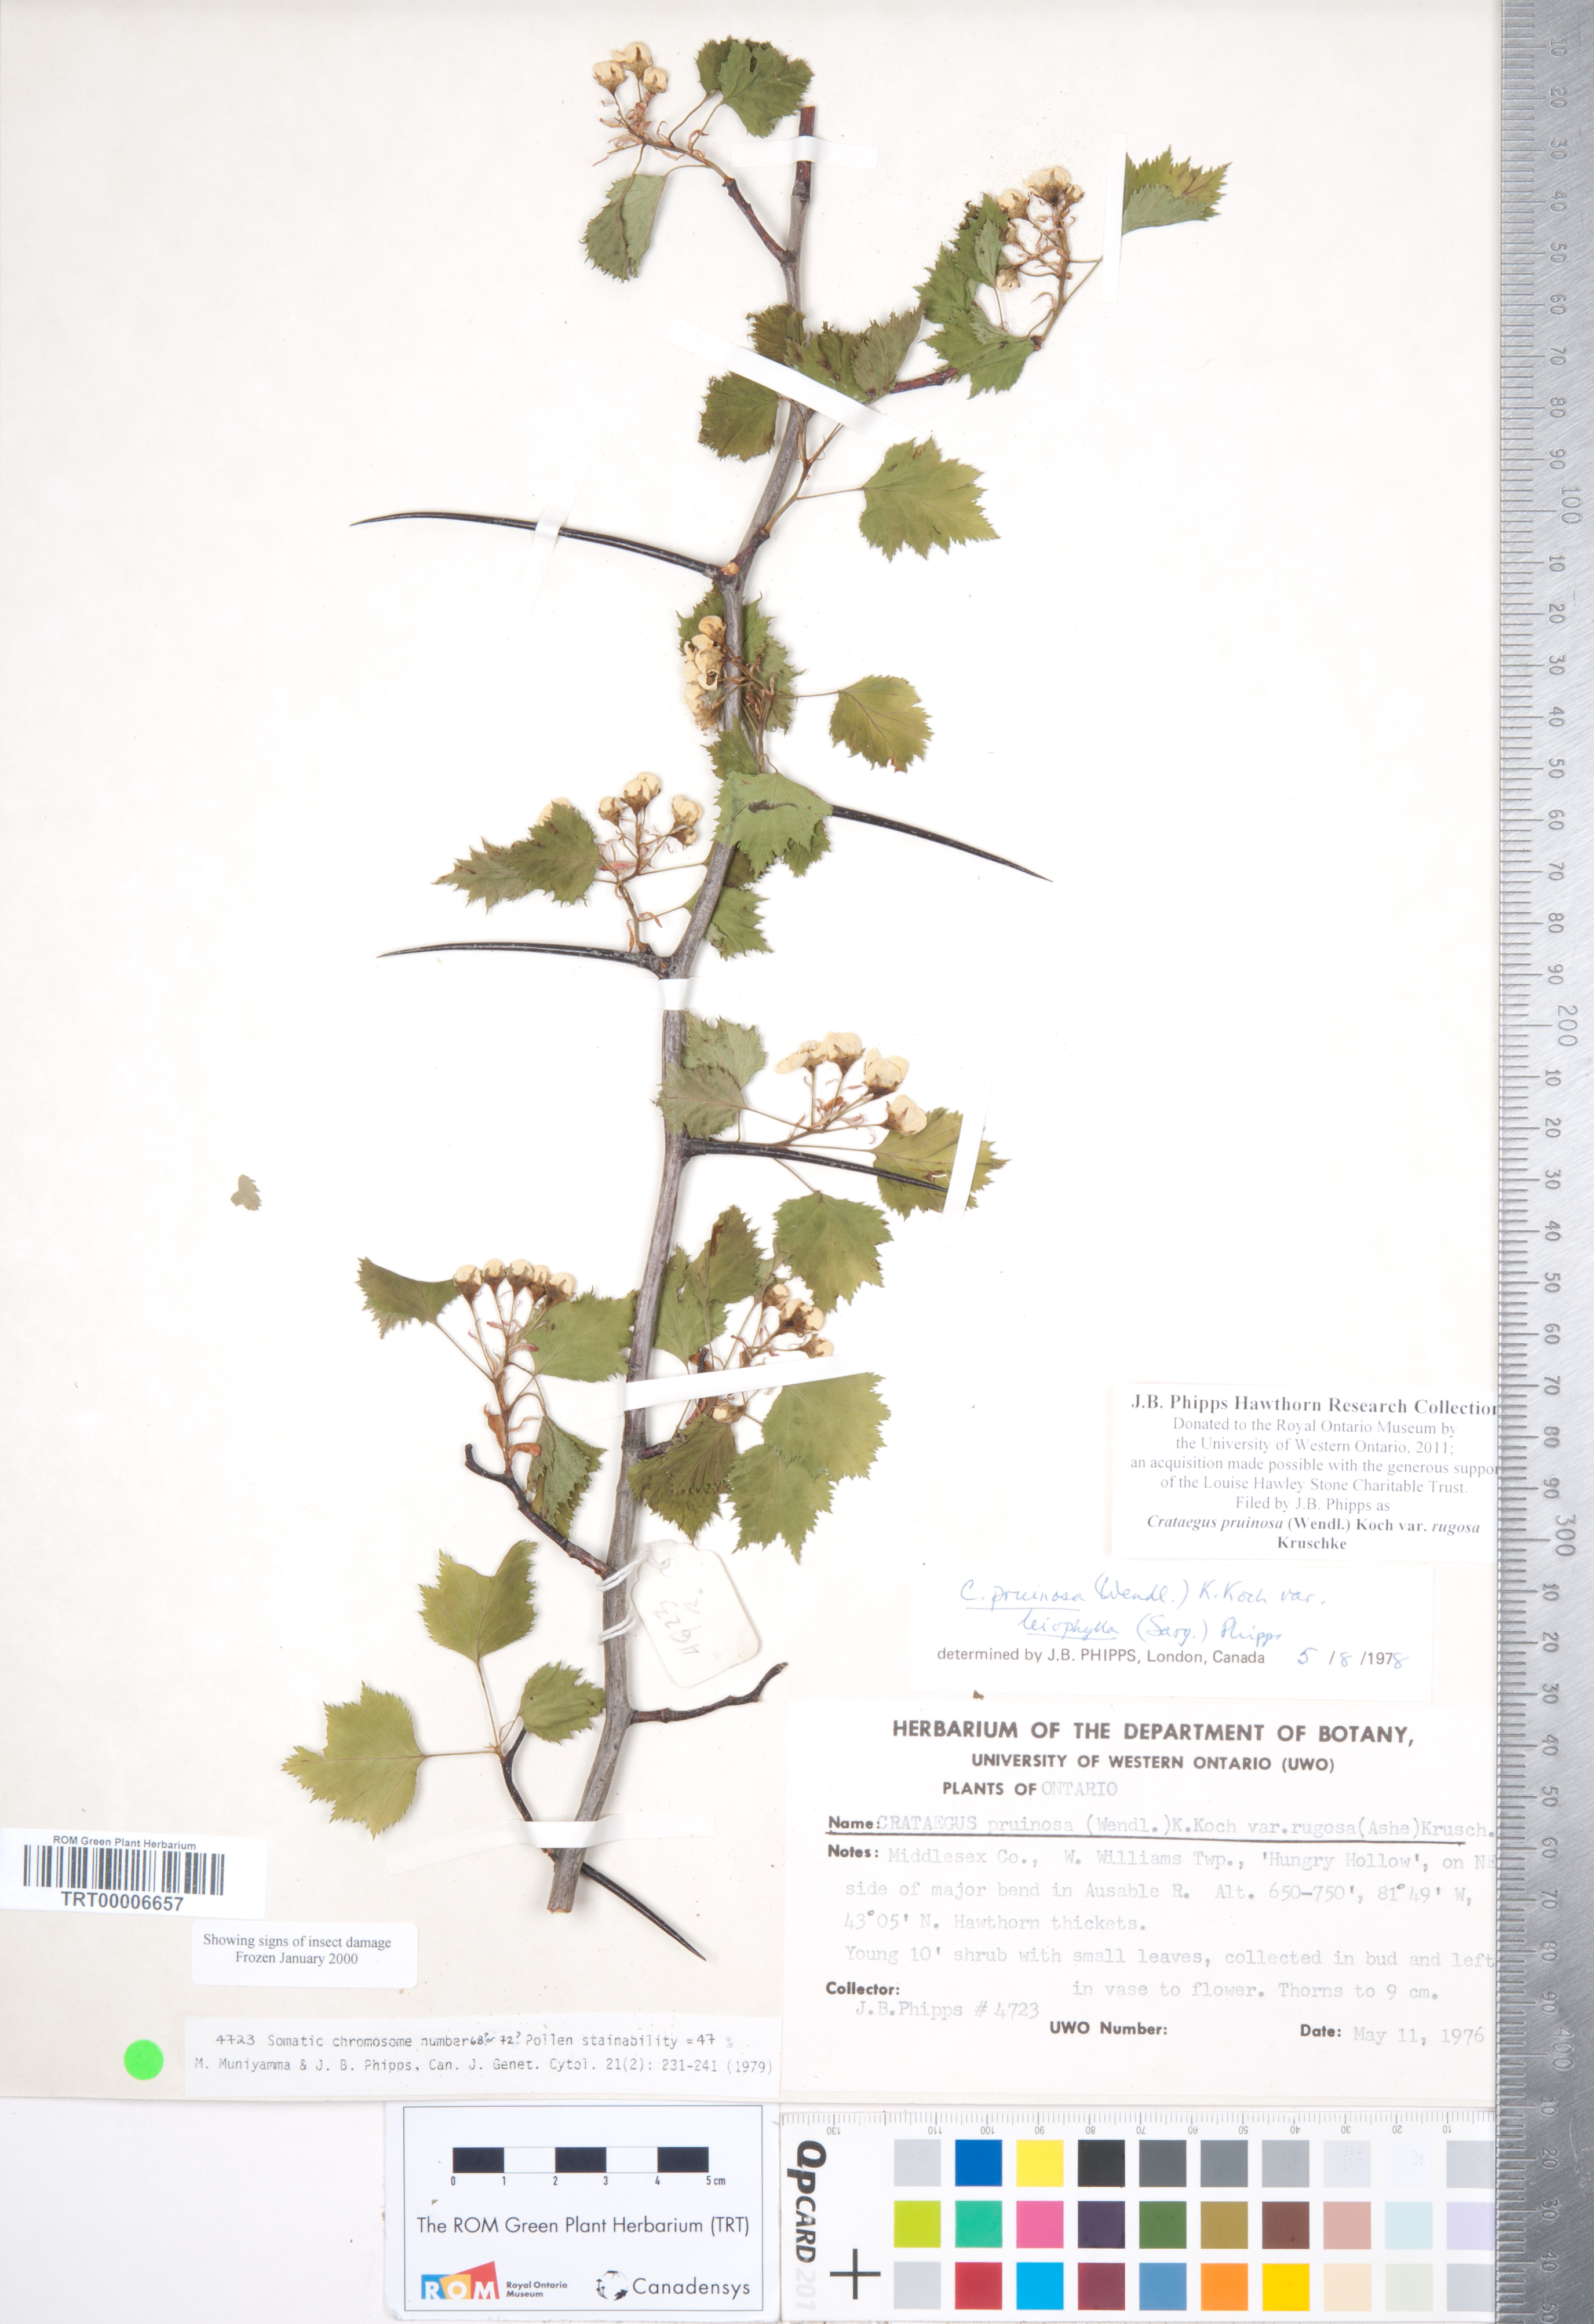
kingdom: Plantae
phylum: Tracheophyta
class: Magnoliopsida
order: Rosales
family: Rosaceae
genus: Crataegus
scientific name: Crataegus pruinosa
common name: Waxy-fruit hawthorn
